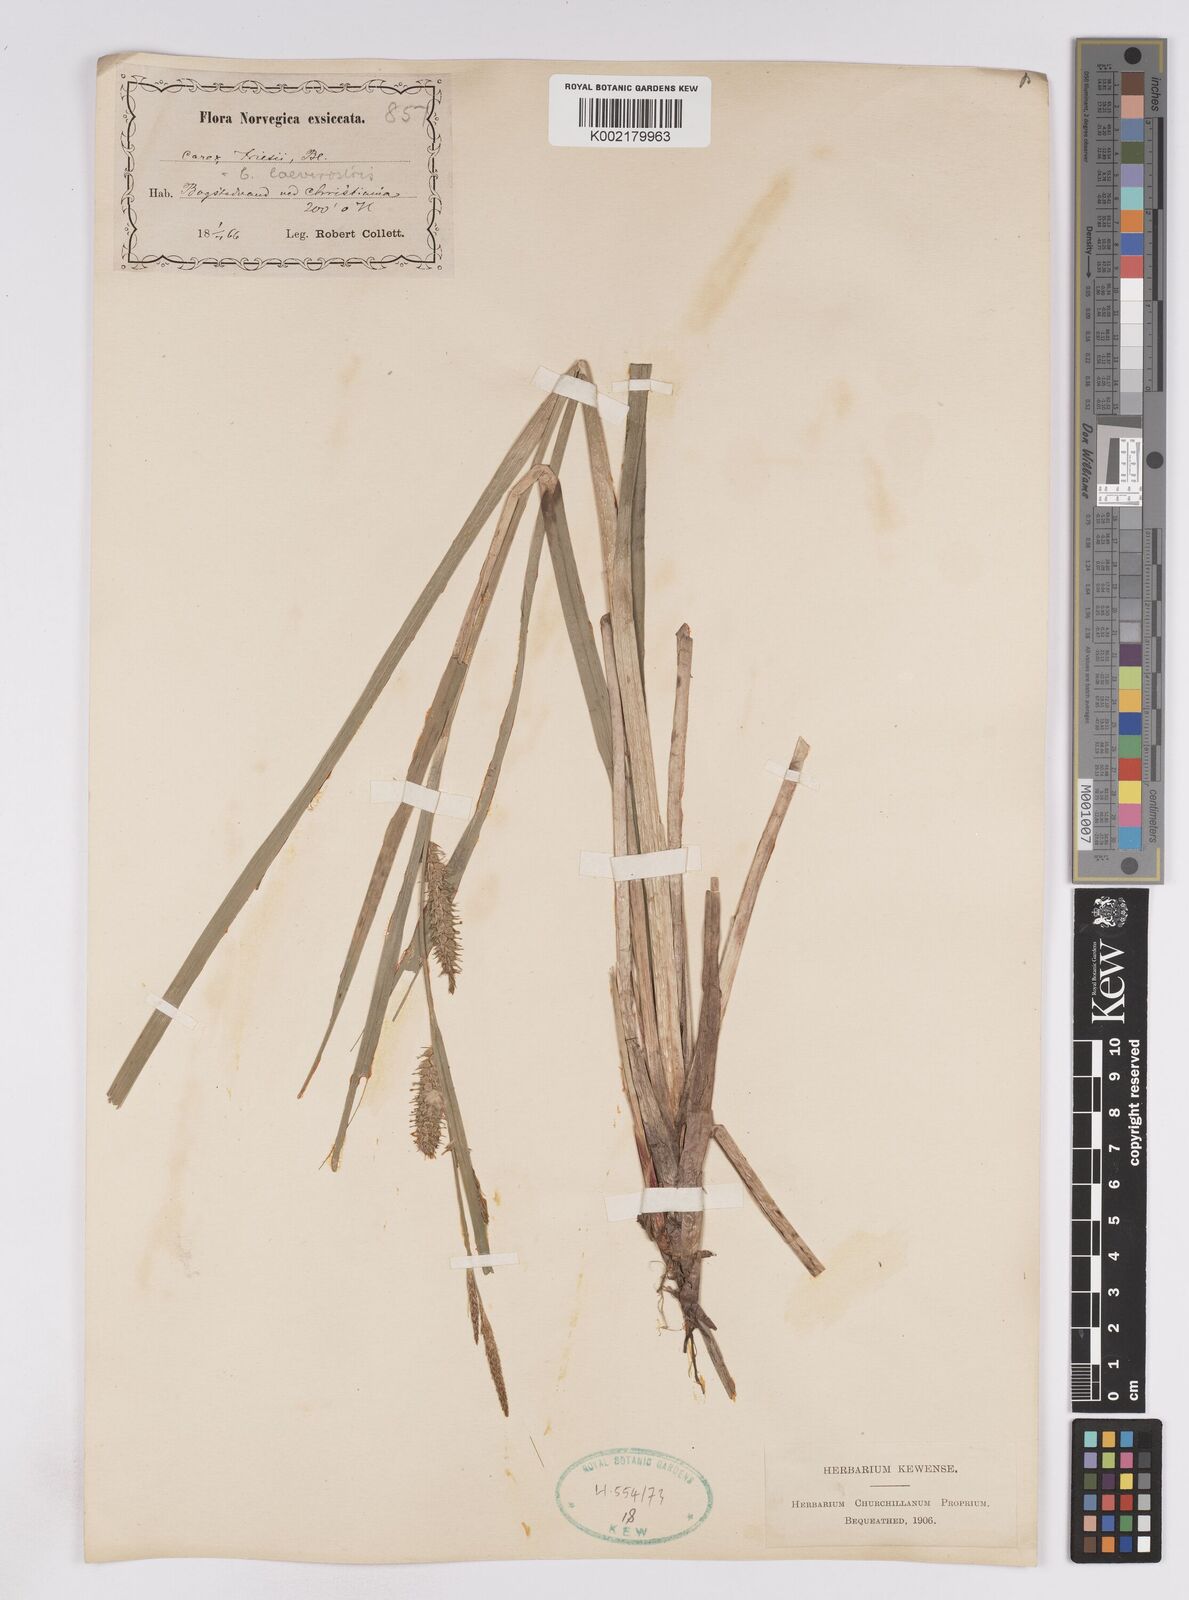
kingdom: Plantae
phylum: Tracheophyta
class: Liliopsida
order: Poales
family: Cyperaceae
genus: Carex
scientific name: Carex utriculata
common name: Beaked sedge
